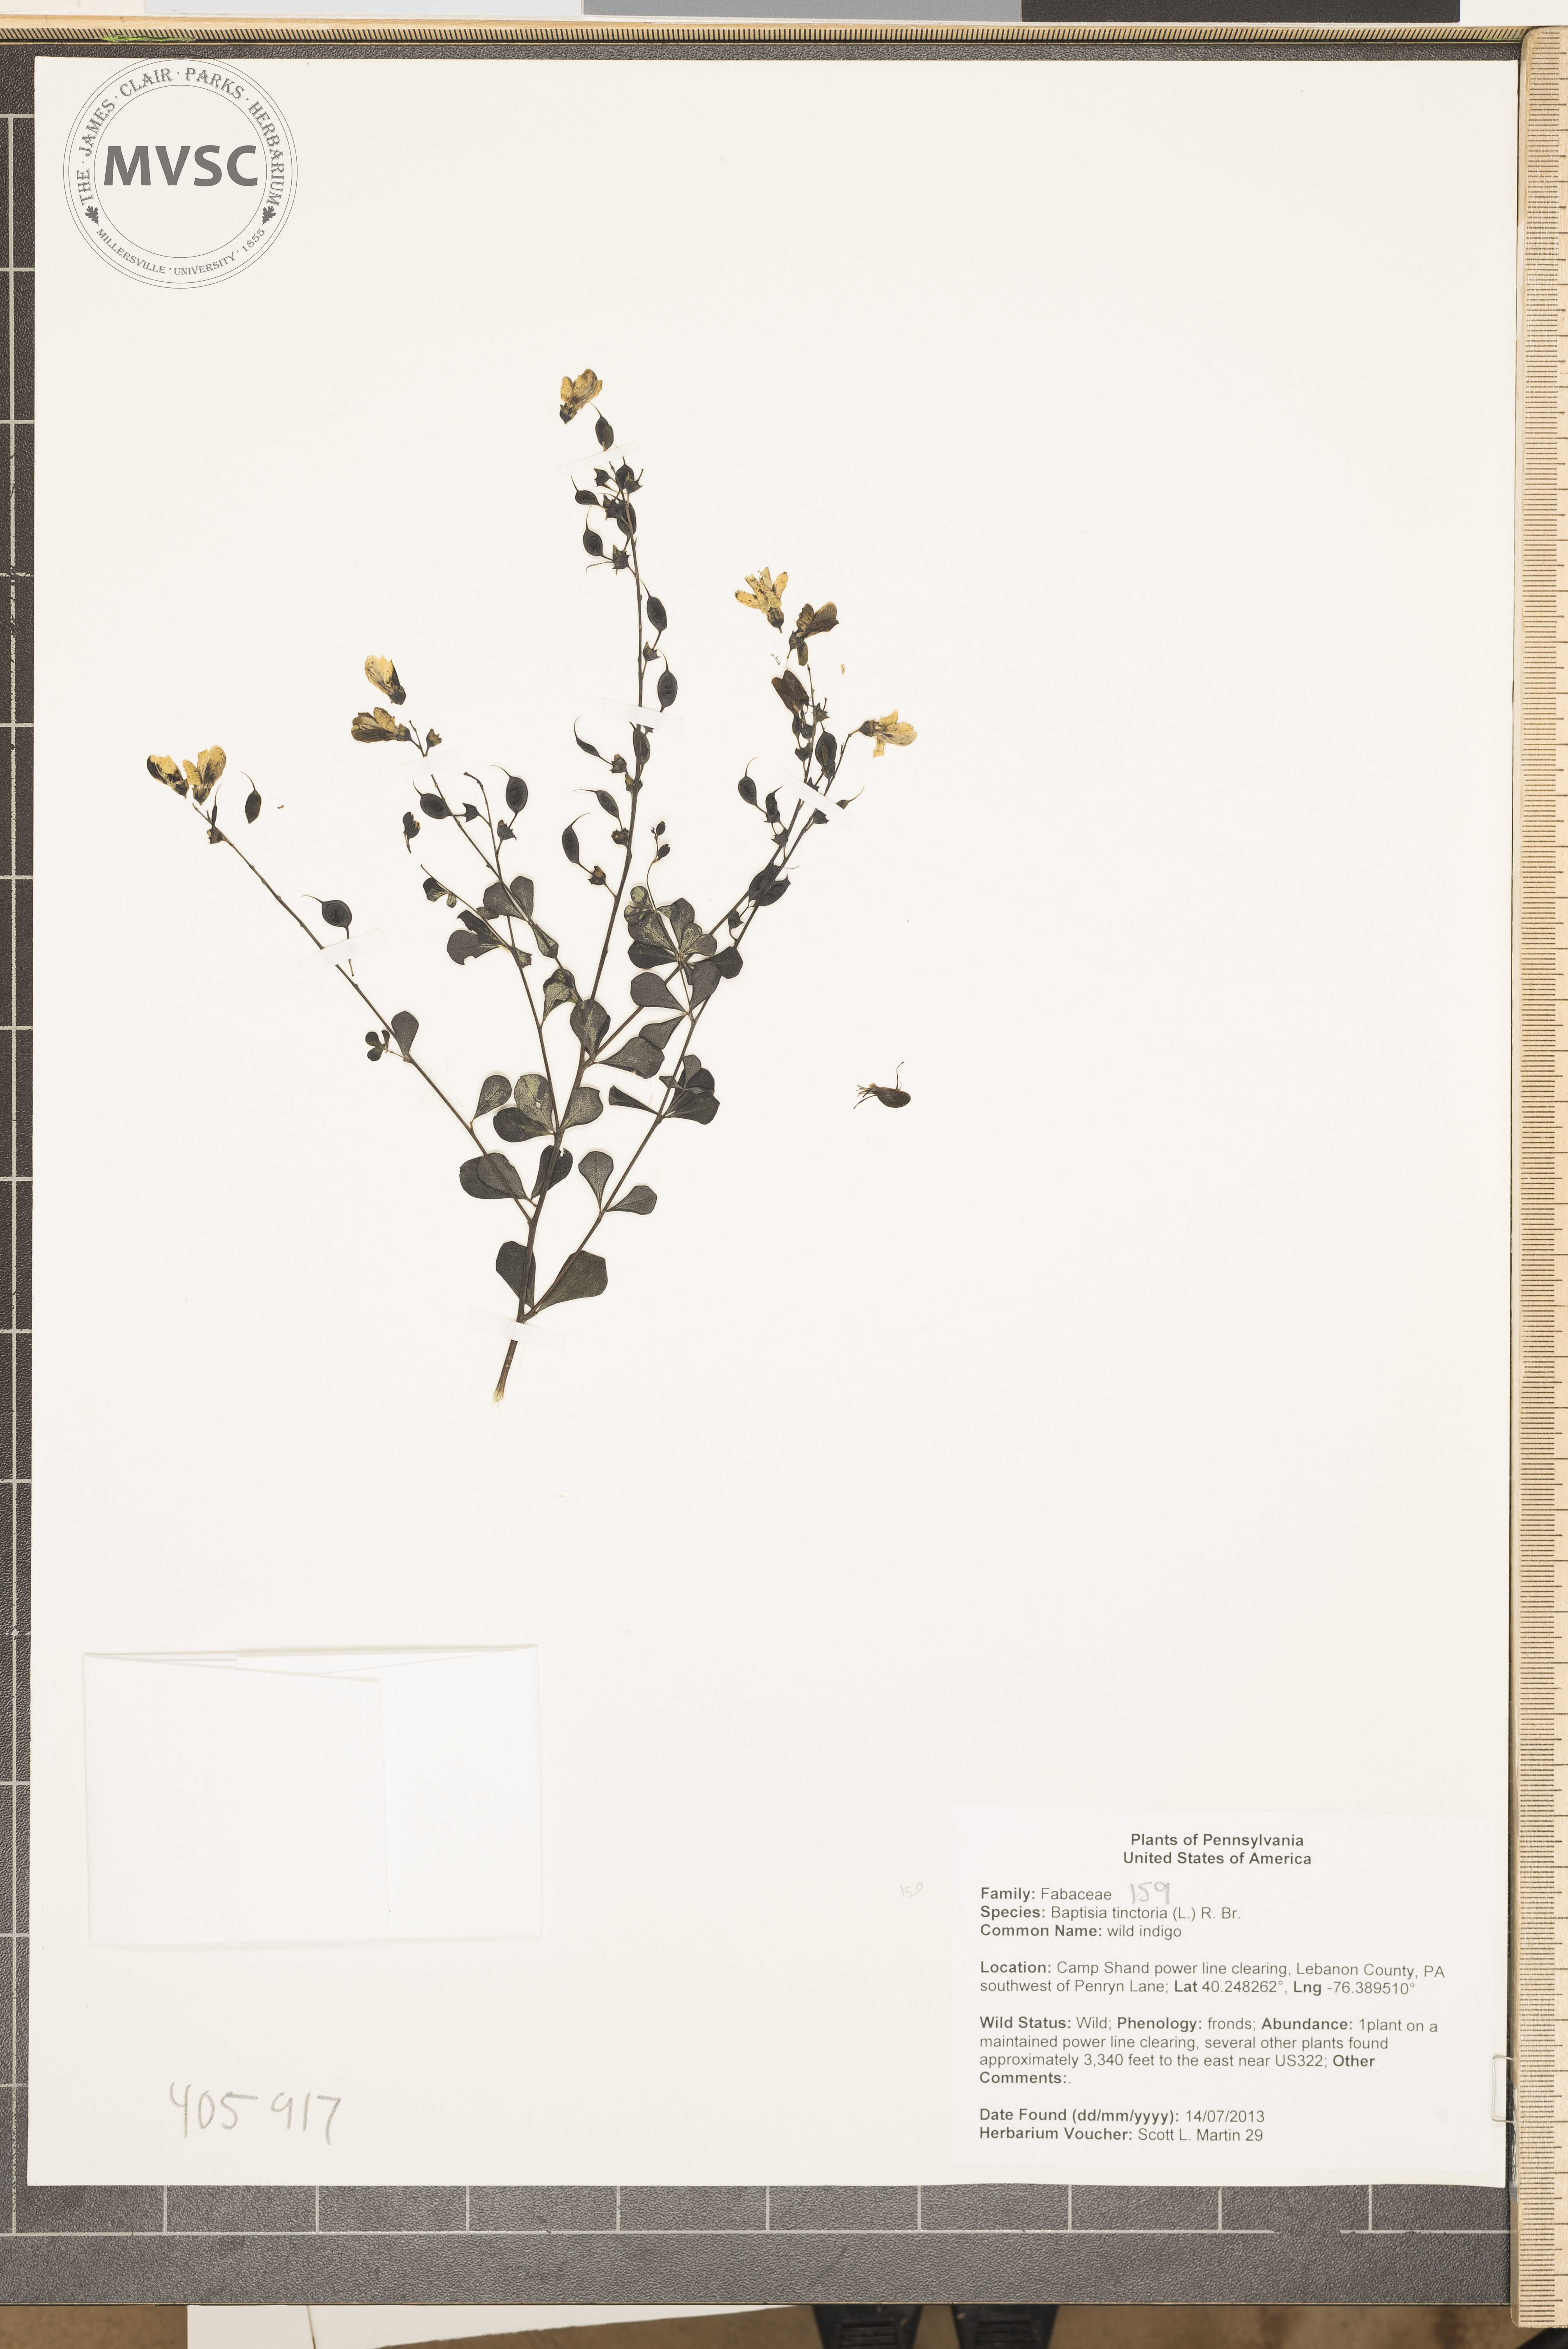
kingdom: Plantae
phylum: Tracheophyta
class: Magnoliopsida
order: Fabales
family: Fabaceae
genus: Baptisia
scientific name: Baptisia tinctoria
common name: wild indigo
